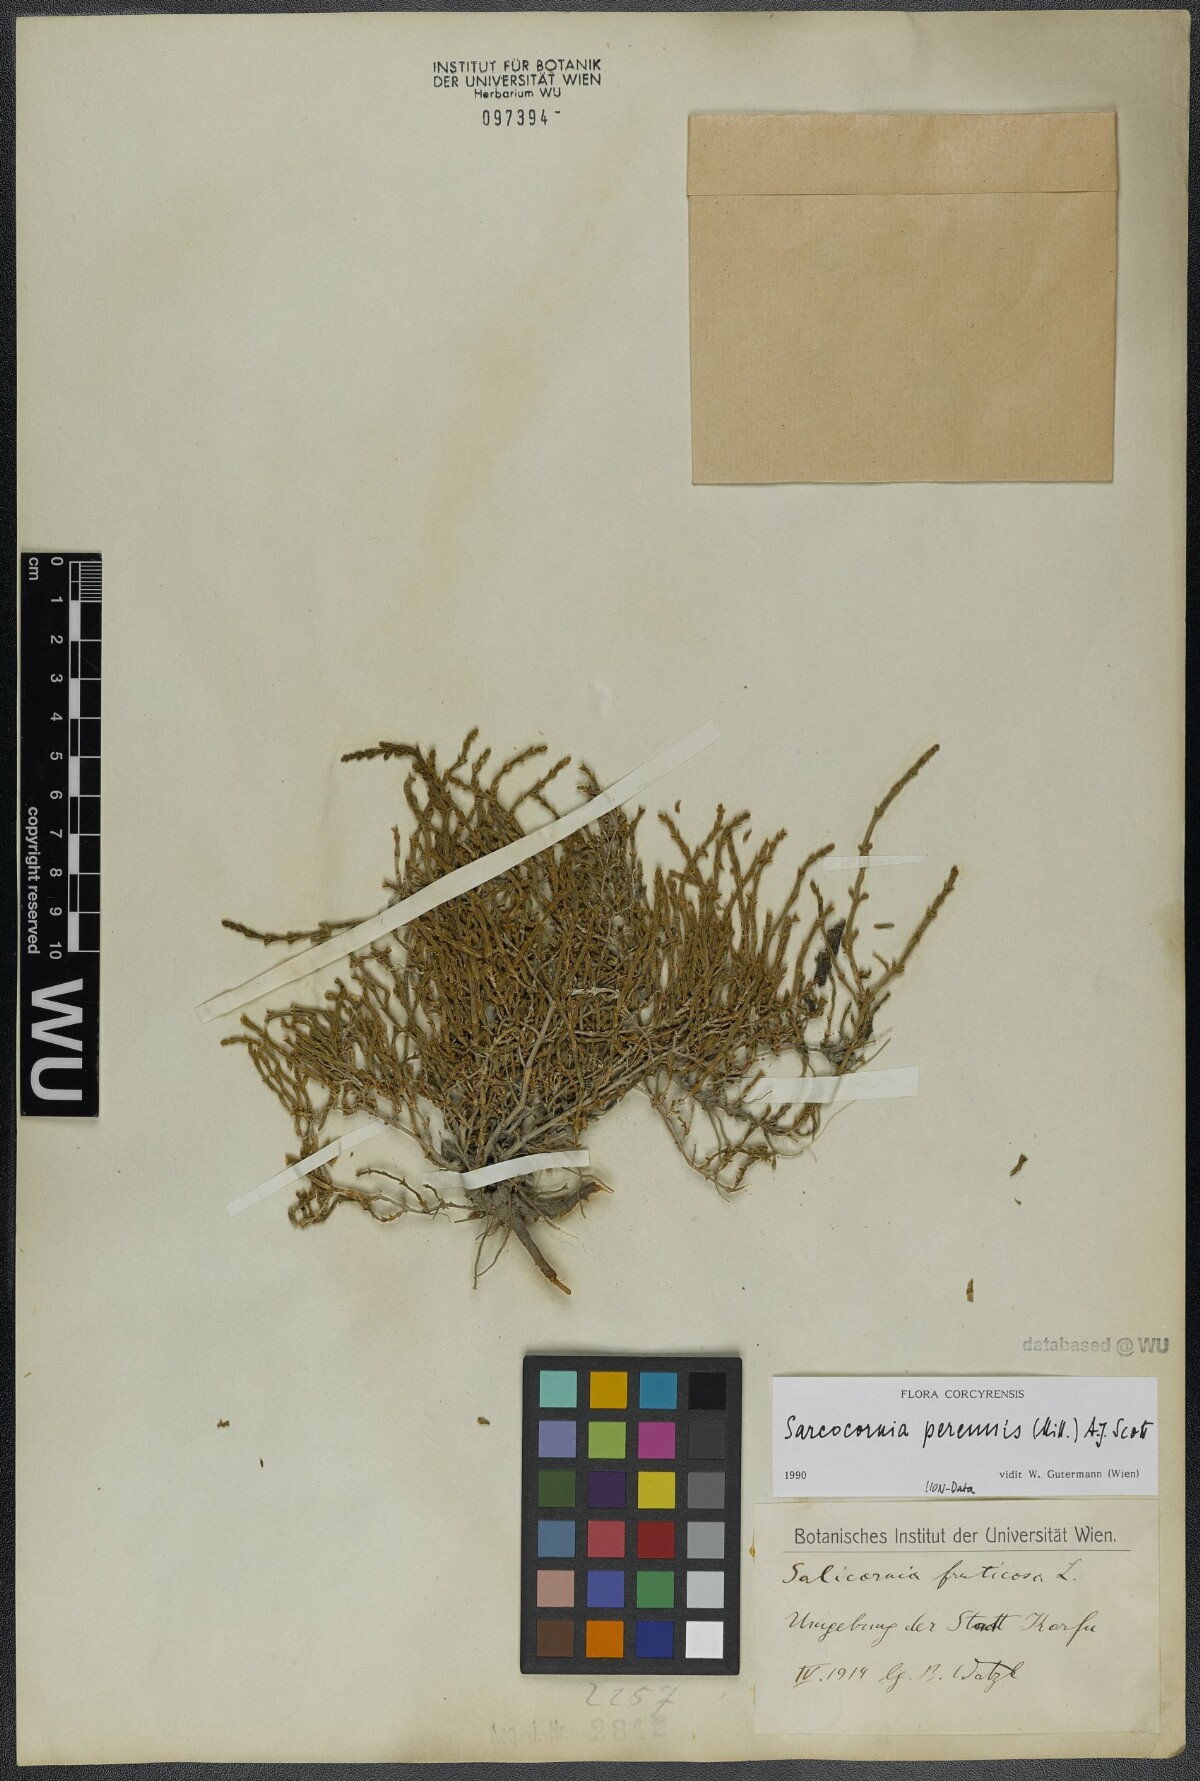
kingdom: Plantae
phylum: Tracheophyta
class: Magnoliopsida
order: Caryophyllales
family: Amaranthaceae
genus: Salicornia
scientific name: Salicornia perennis
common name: Chicken claws
